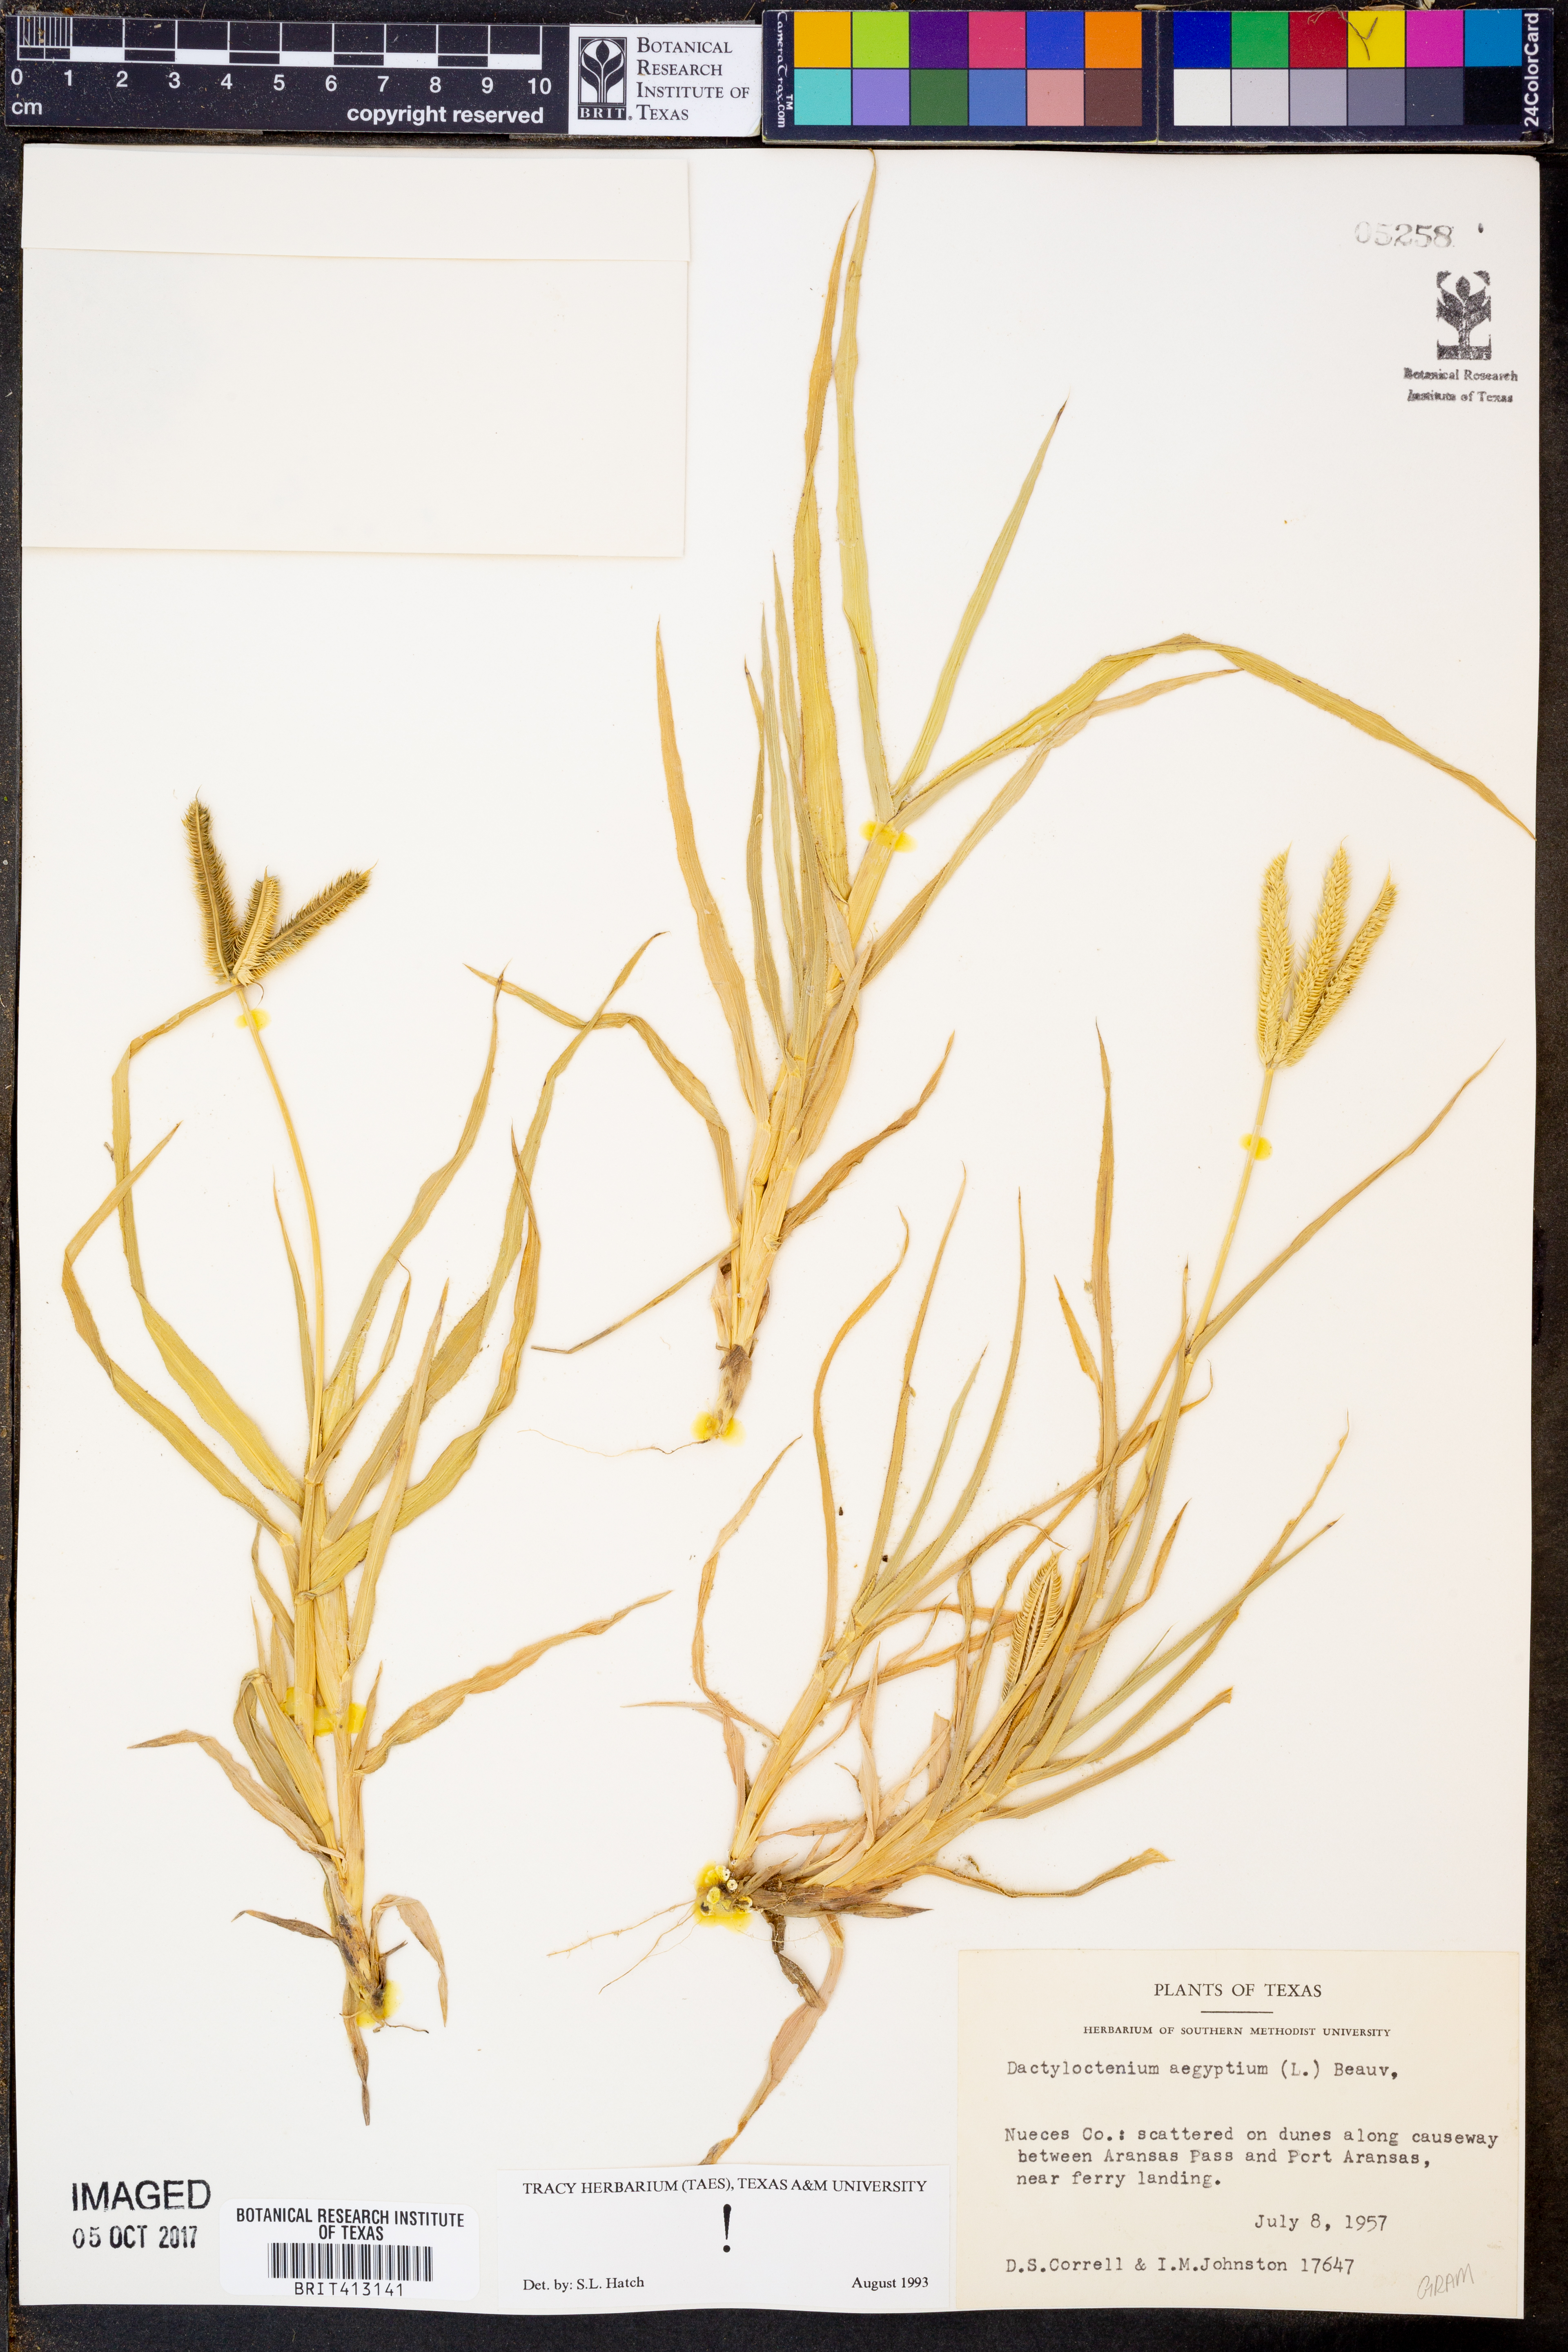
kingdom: Plantae
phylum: Tracheophyta
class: Liliopsida
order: Poales
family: Poaceae
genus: Dactyloctenium
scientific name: Dactyloctenium aegyptium
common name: Egyptian grass
